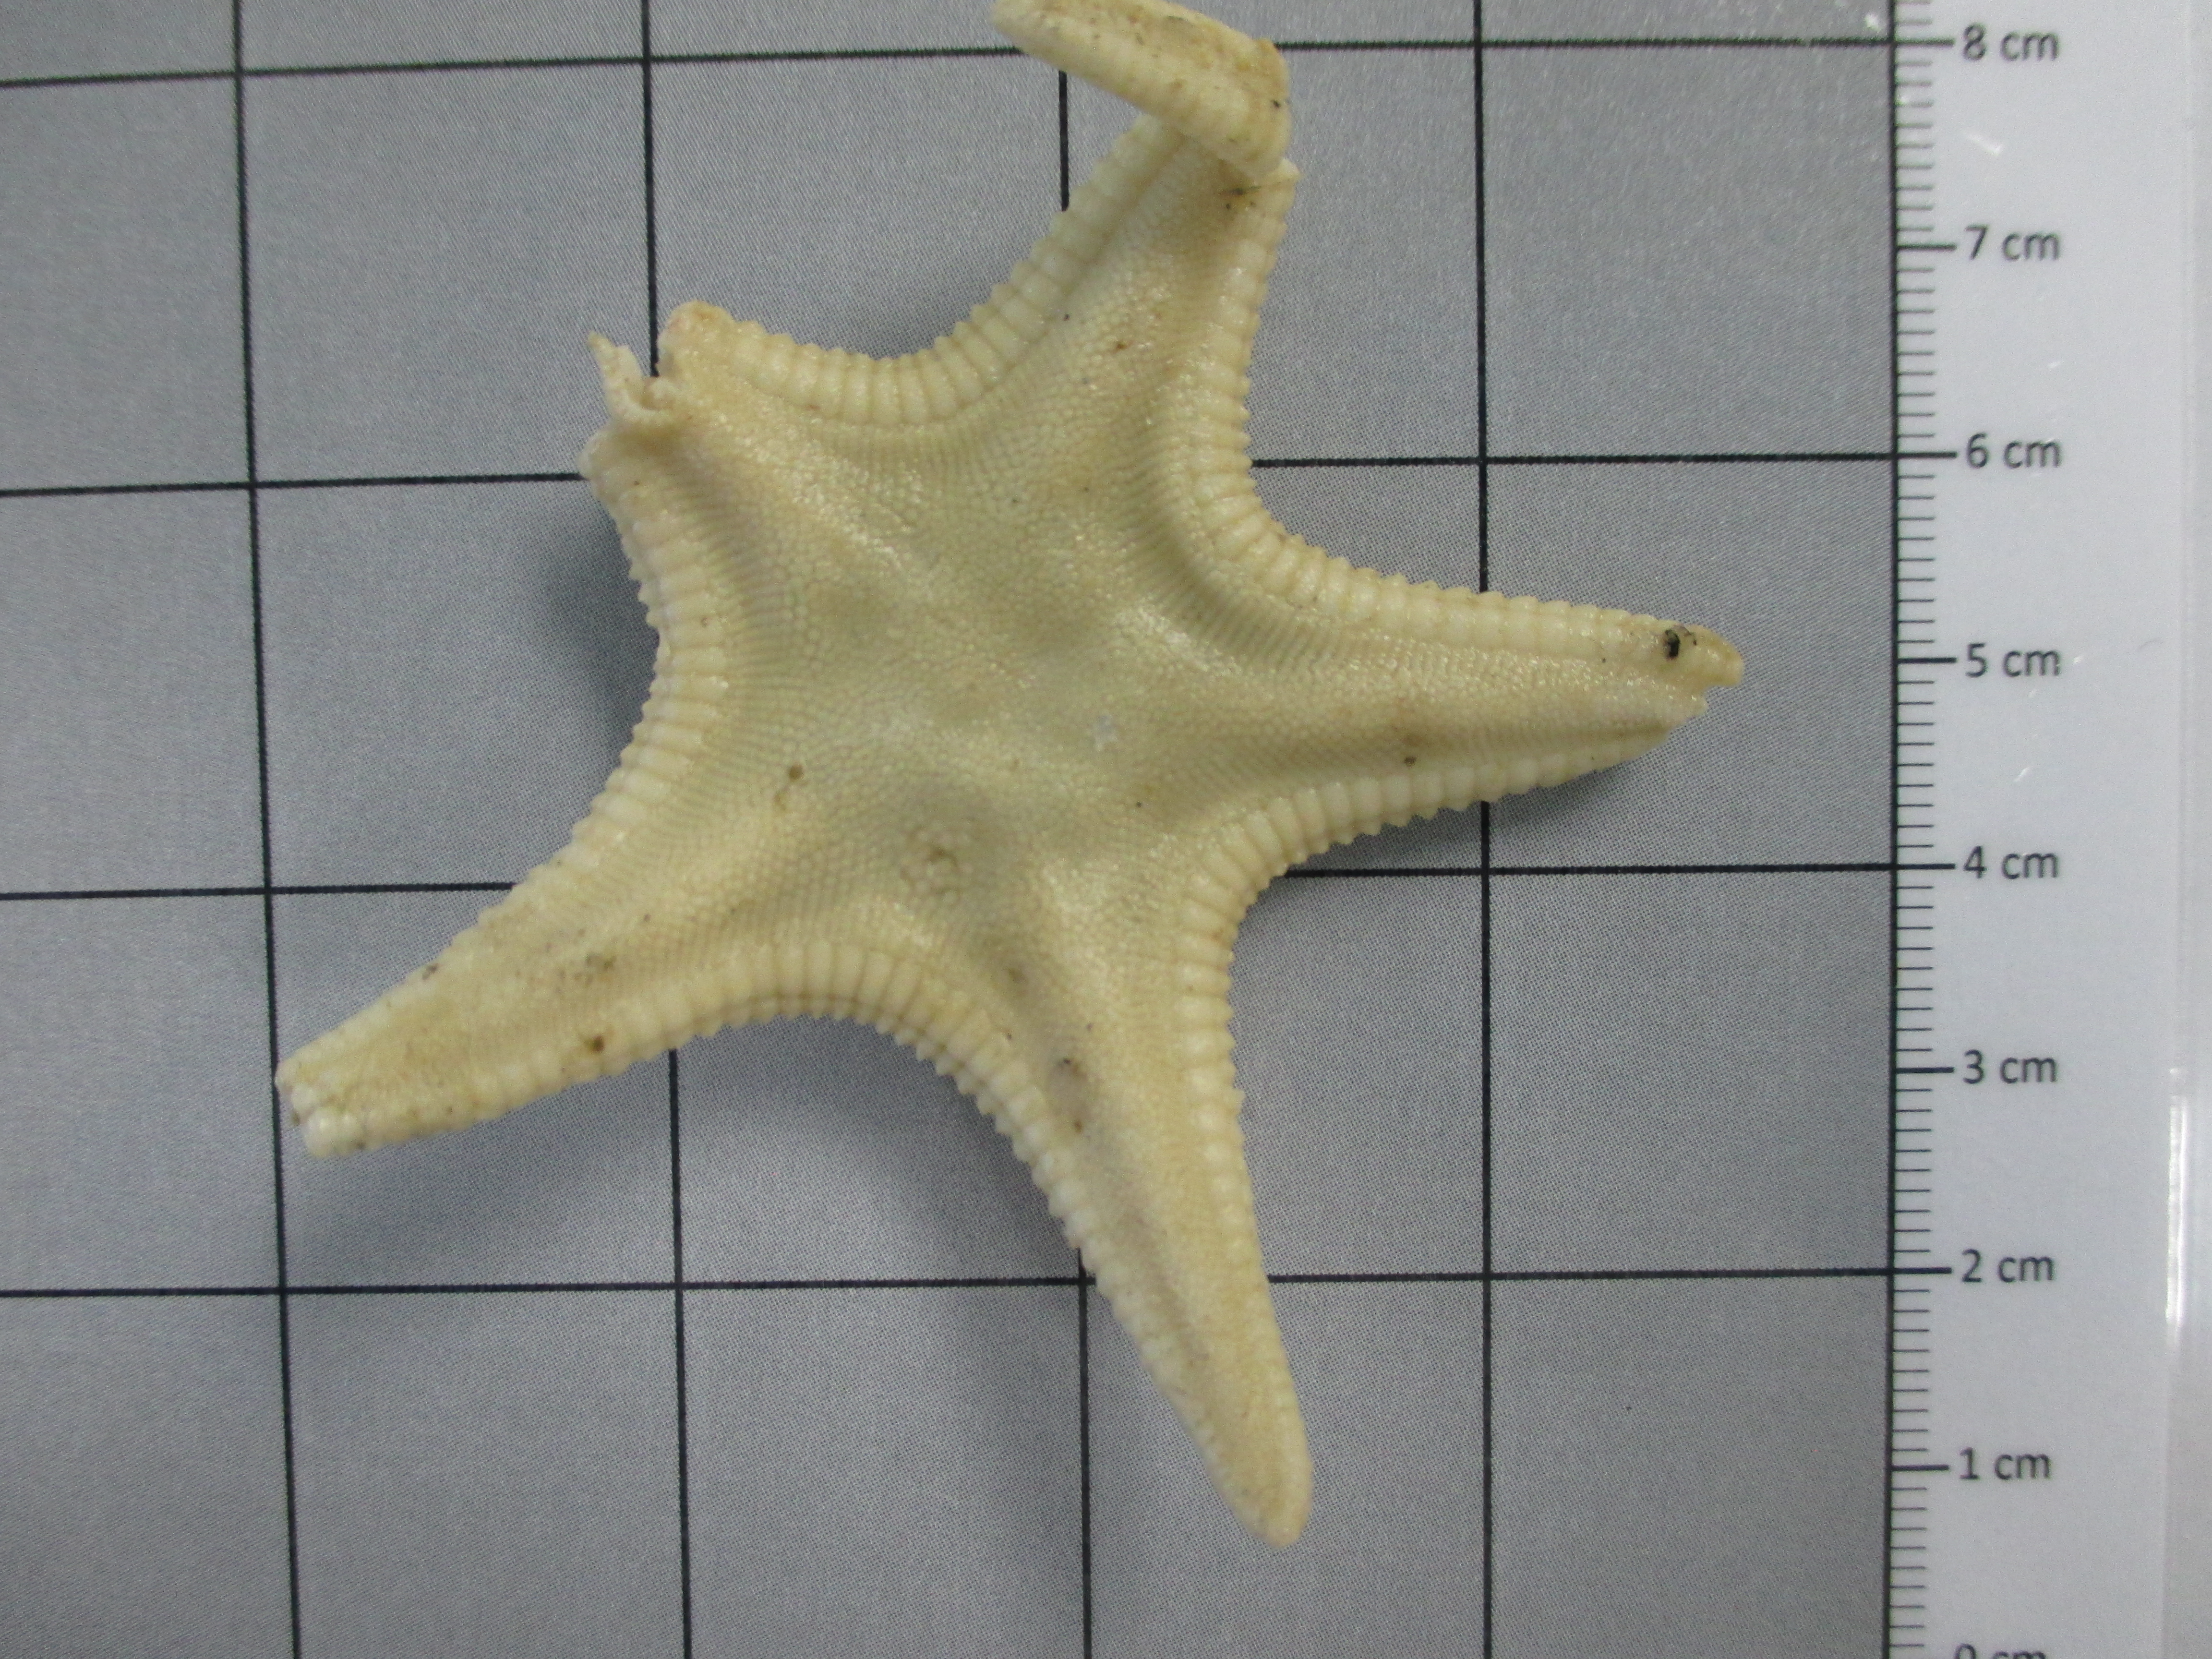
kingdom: Animalia
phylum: Echinodermata
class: Asteroidea
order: Paxillosida
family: Astropectinidae
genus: Persephonaster
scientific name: Persephonaster
